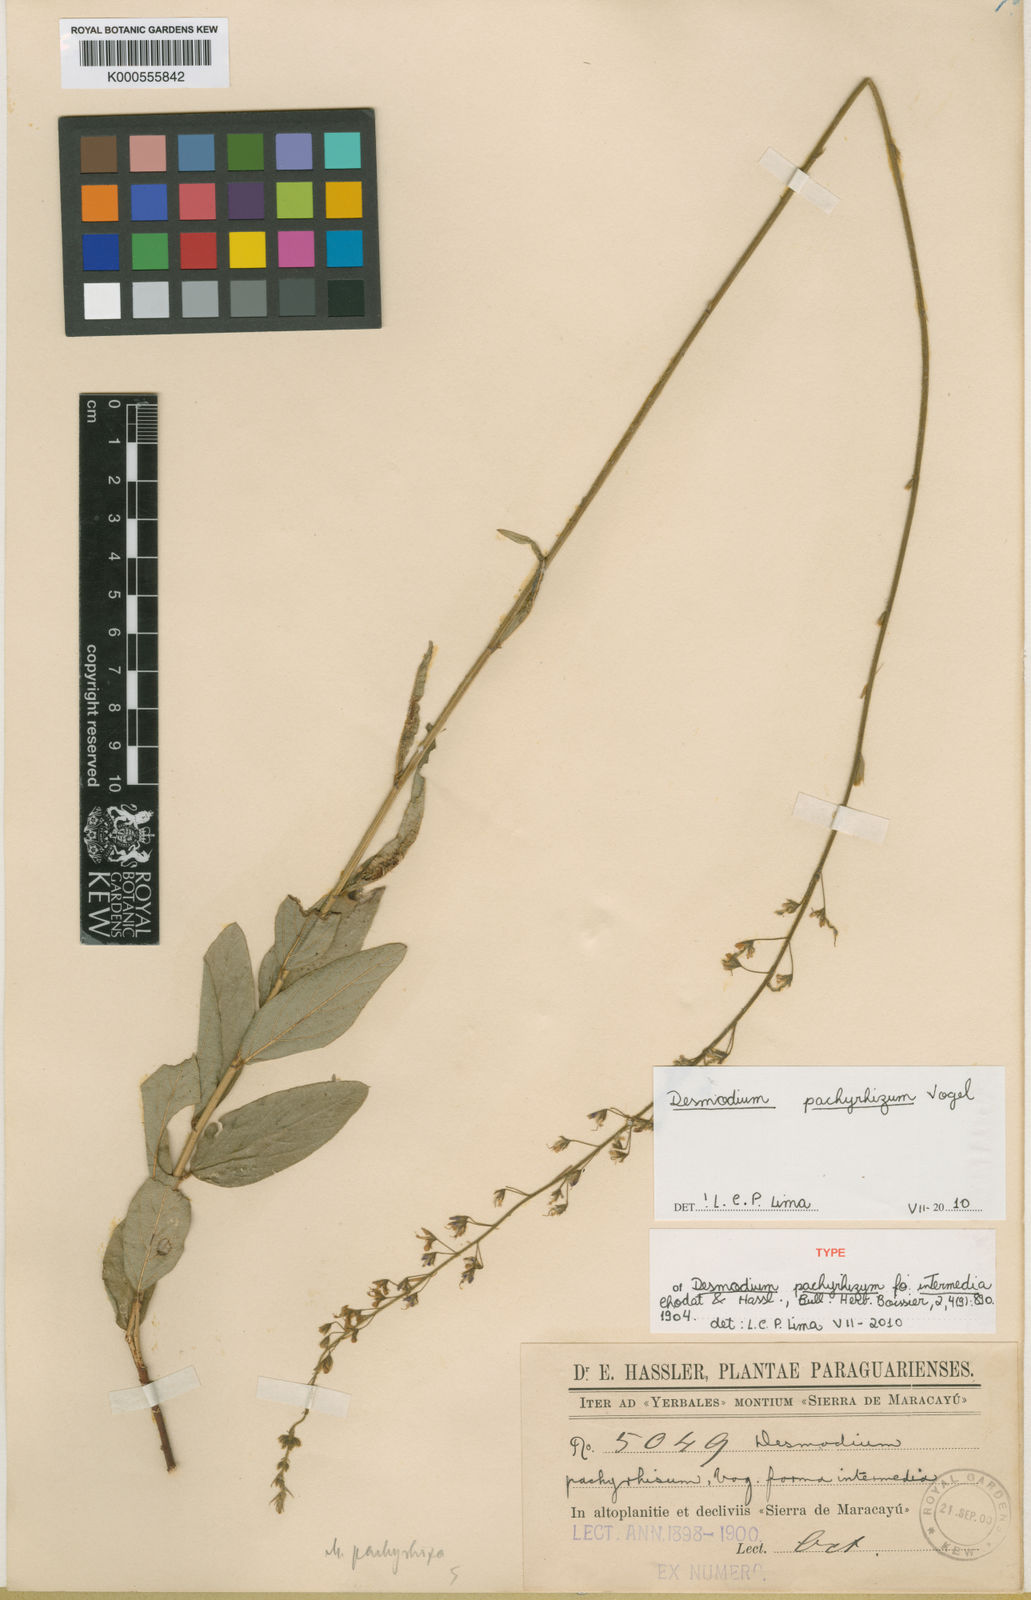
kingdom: Plantae
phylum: Tracheophyta
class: Magnoliopsida
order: Fabales
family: Fabaceae
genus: Desmodium
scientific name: Desmodium pachyrhizum
